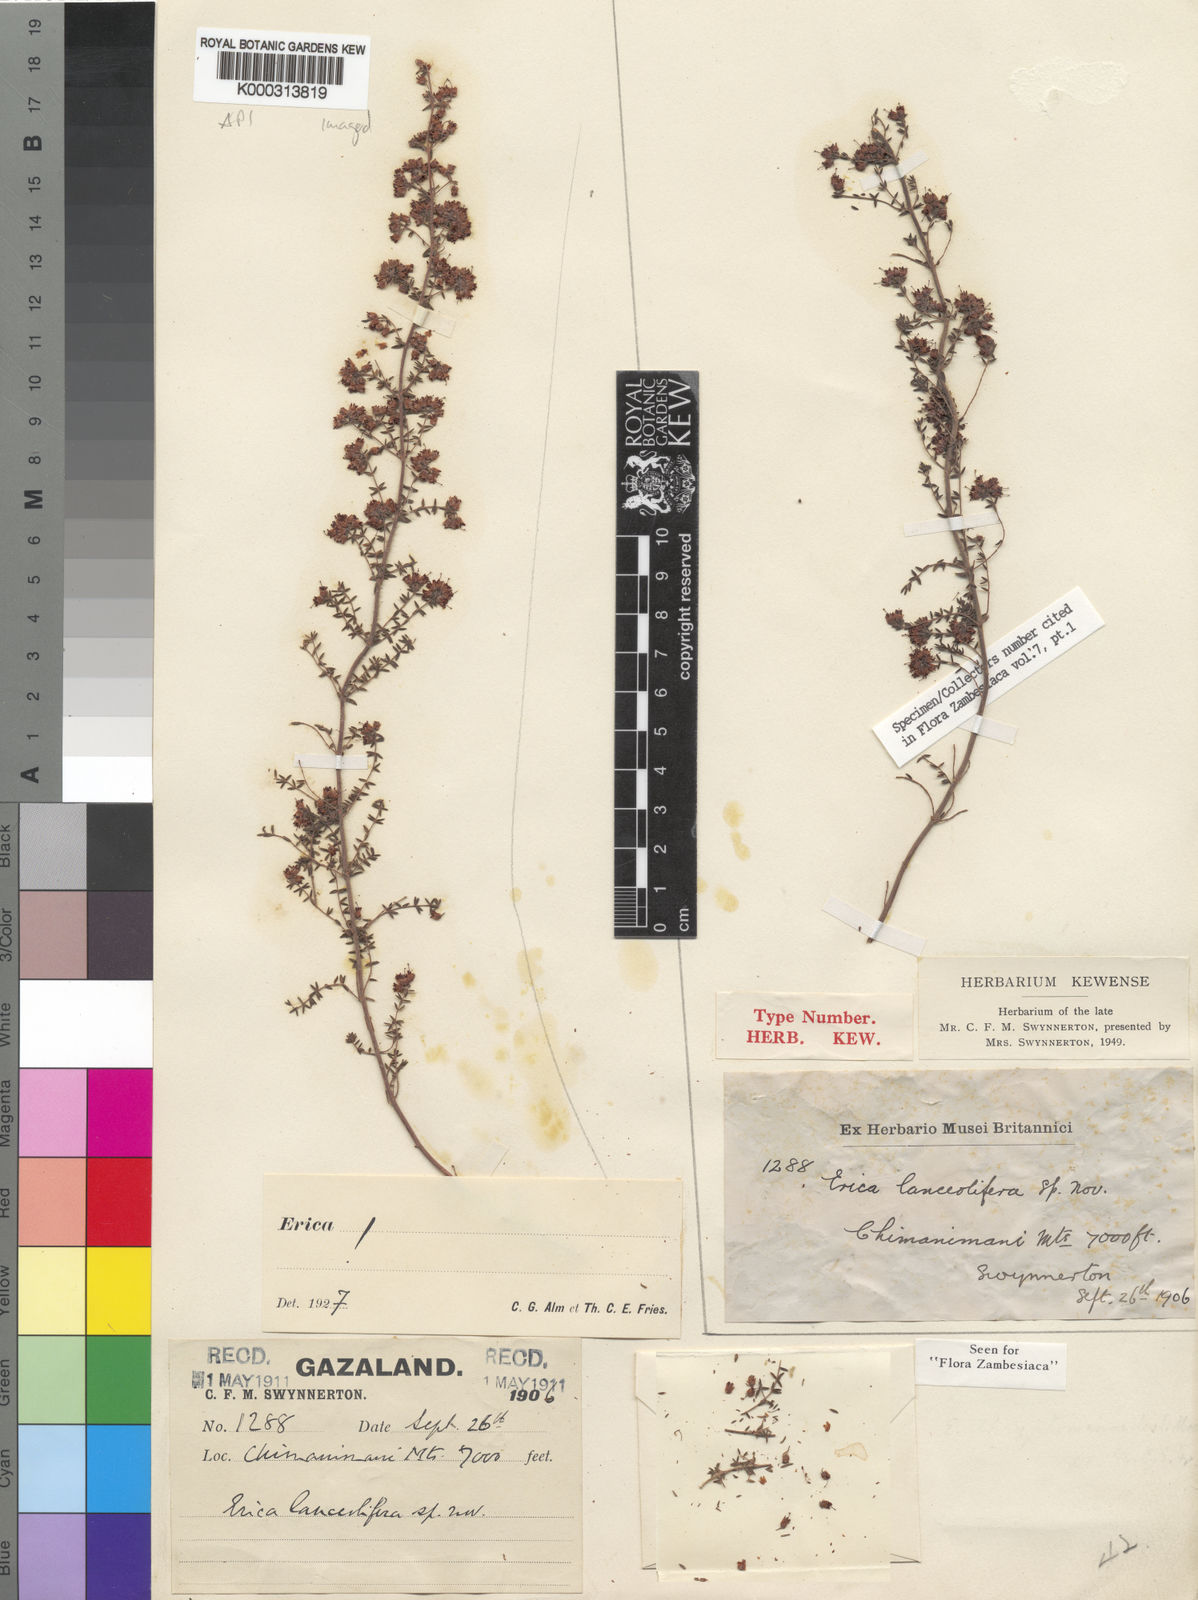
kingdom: Plantae
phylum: Tracheophyta
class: Magnoliopsida
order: Ericales
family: Ericaceae
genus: Erica
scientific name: Erica lanceolifera
